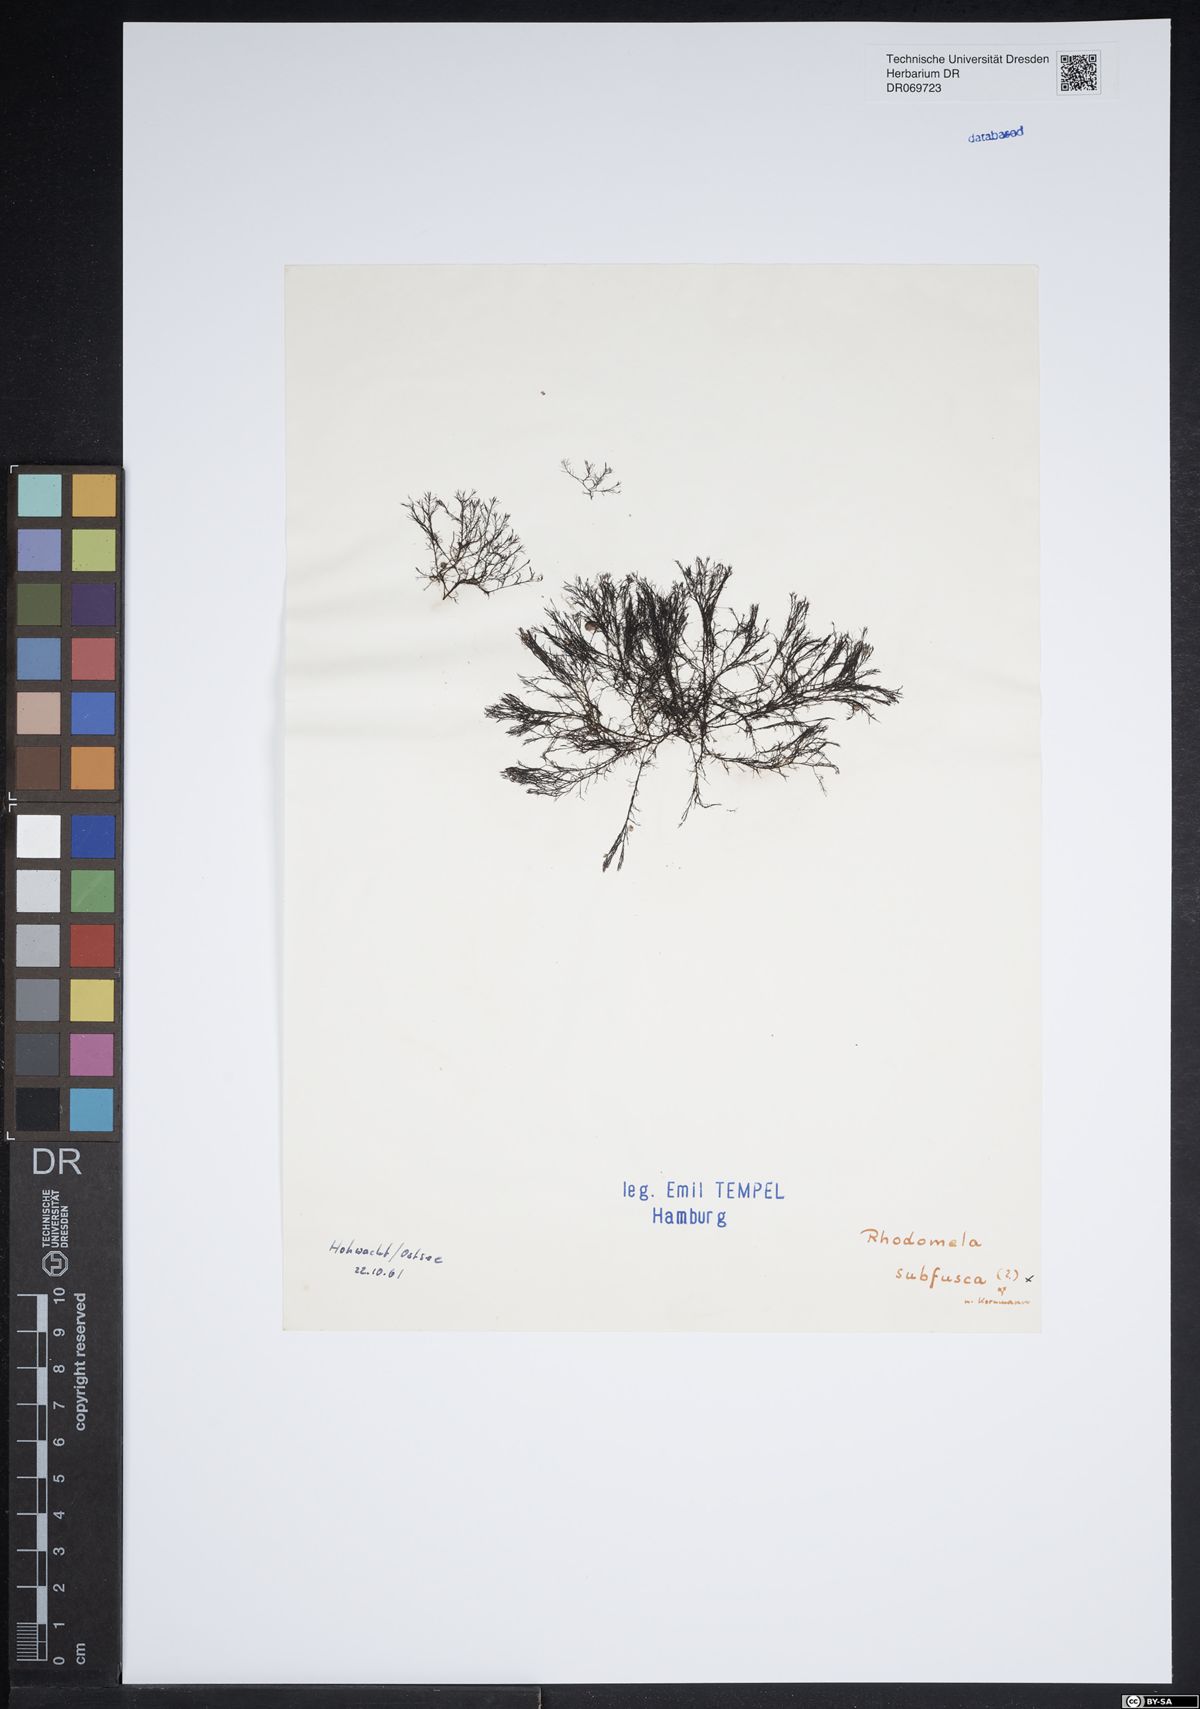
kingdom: Plantae
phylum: Rhodophyta
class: Florideophyceae
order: Ceramiales
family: Rhodomelaceae
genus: Rhodomela
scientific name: Rhodomela
